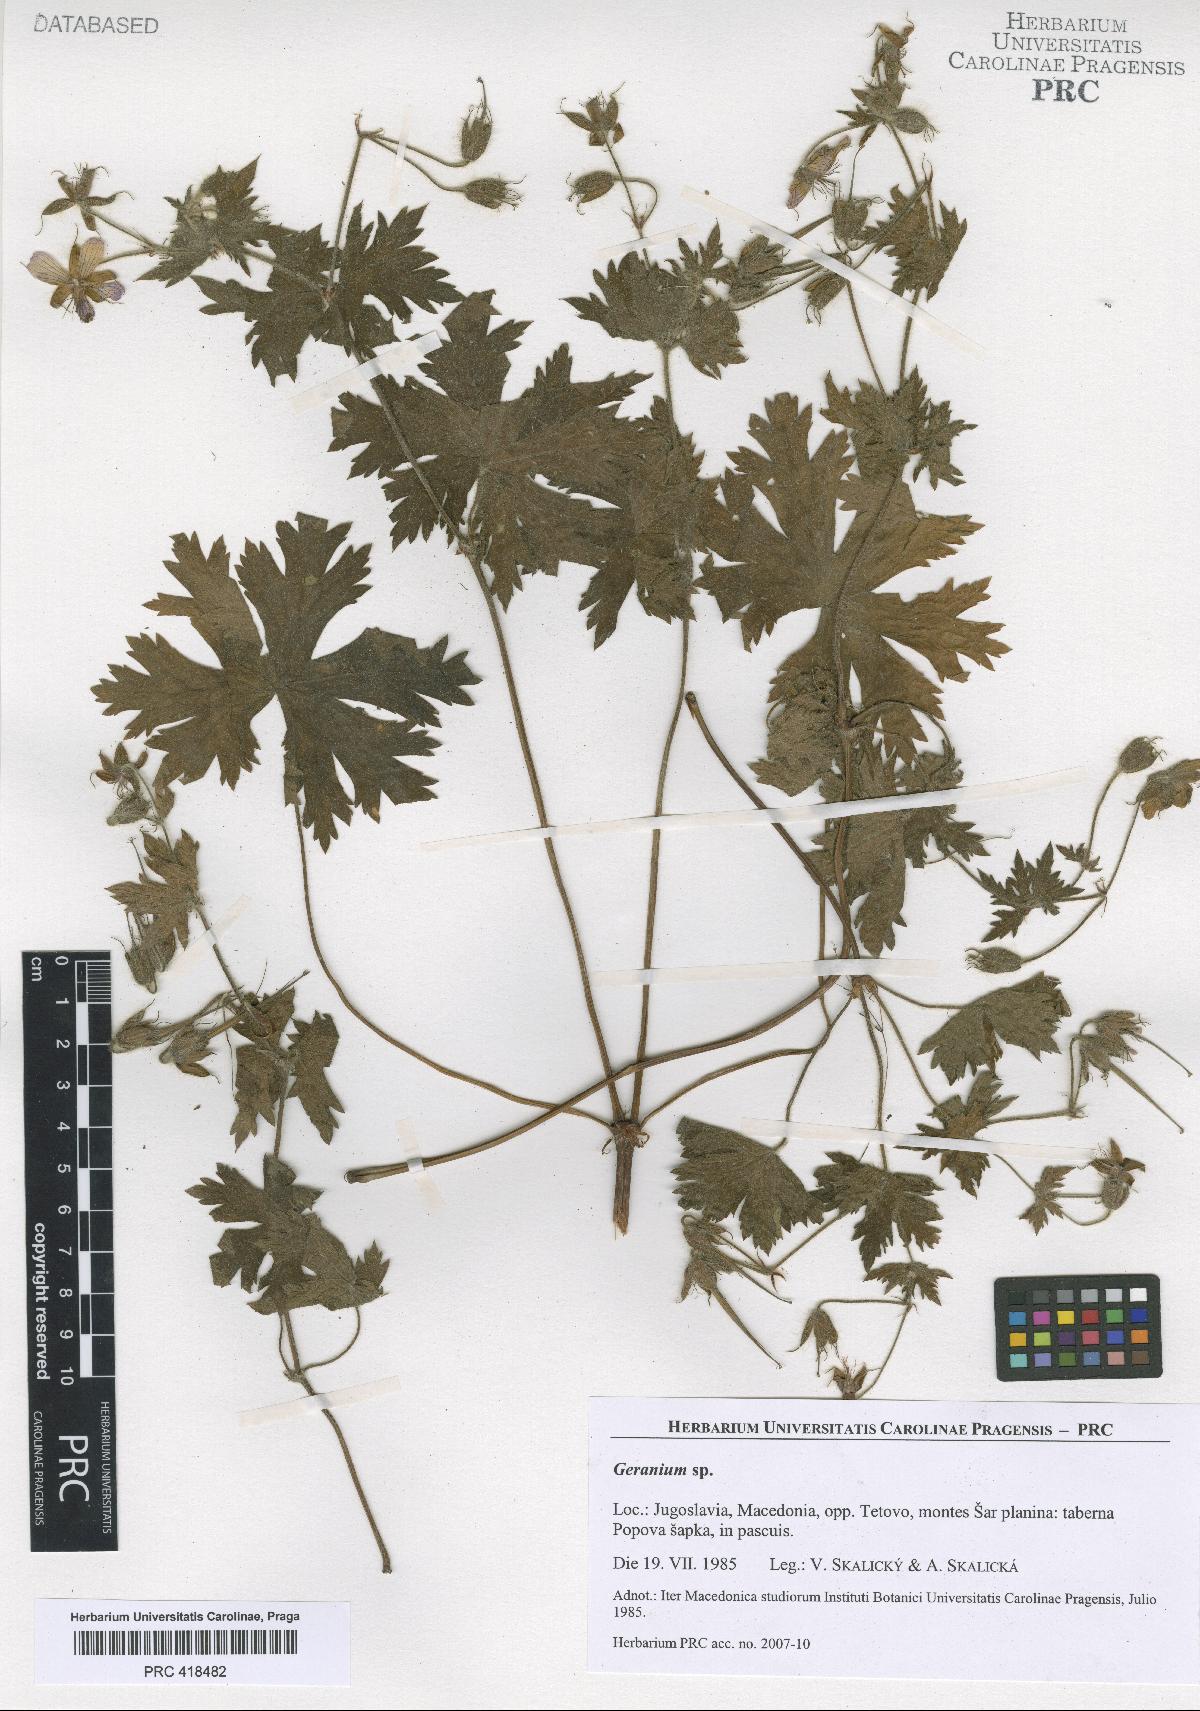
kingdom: Plantae
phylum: Tracheophyta
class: Magnoliopsida
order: Geraniales
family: Geraniaceae
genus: Geranium
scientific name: Geranium aristatum
